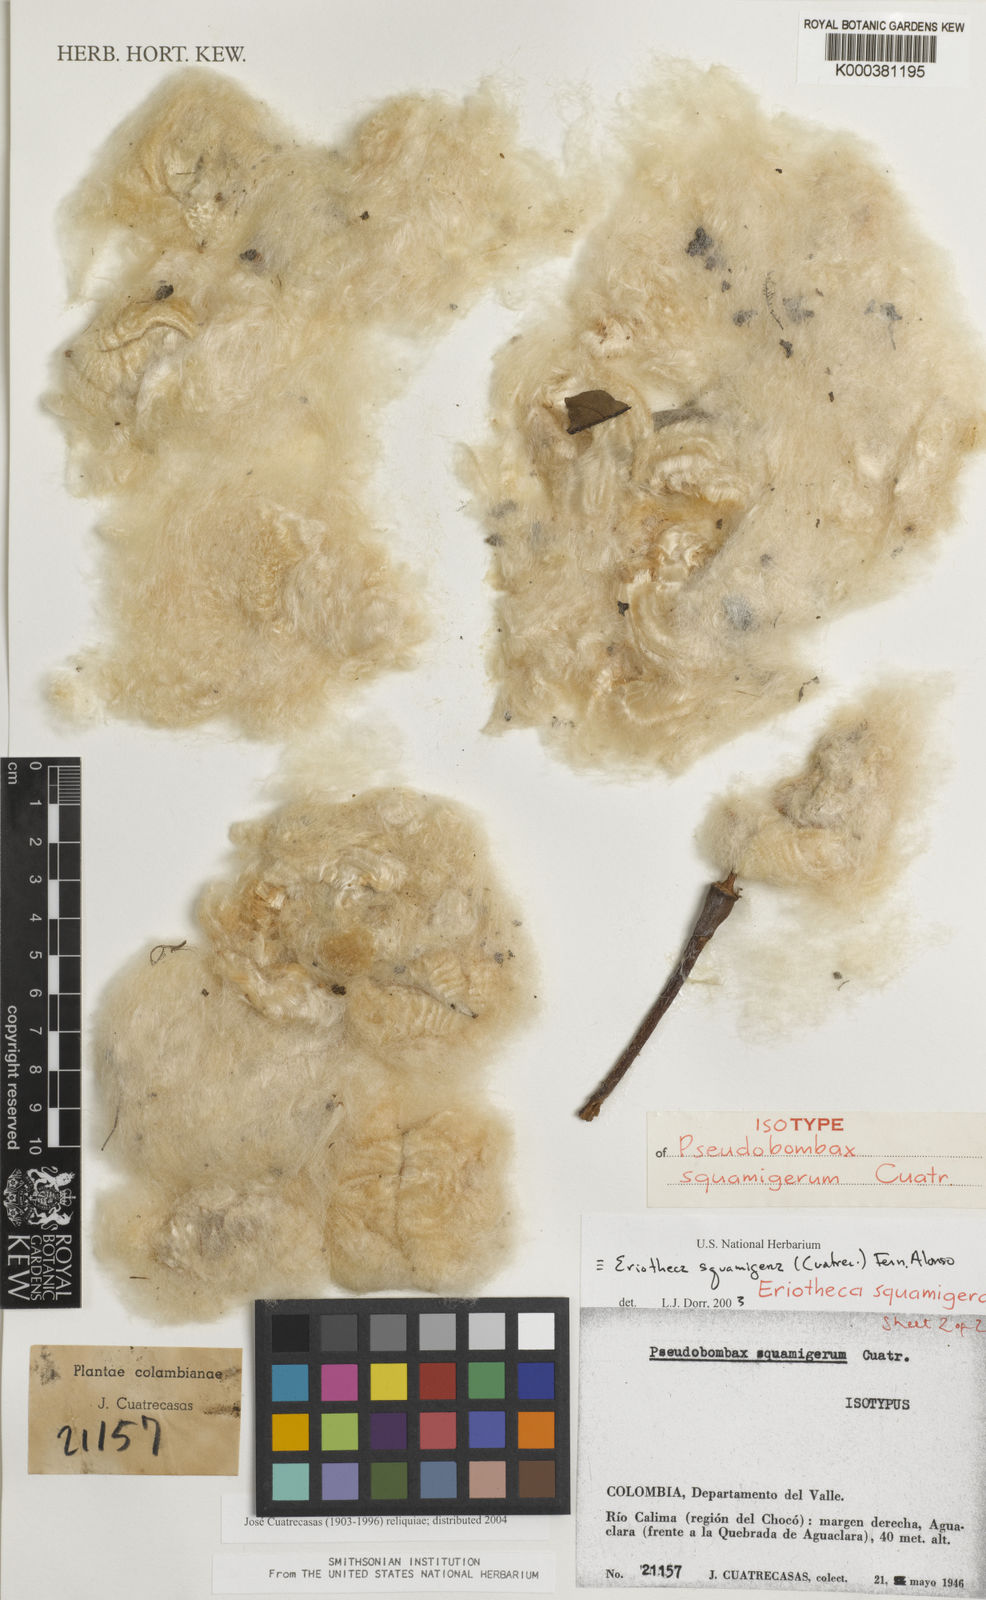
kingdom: Plantae
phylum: Tracheophyta
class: Magnoliopsida
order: Malvales
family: Malvaceae
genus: Eriotheca
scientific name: Eriotheca squamigera
